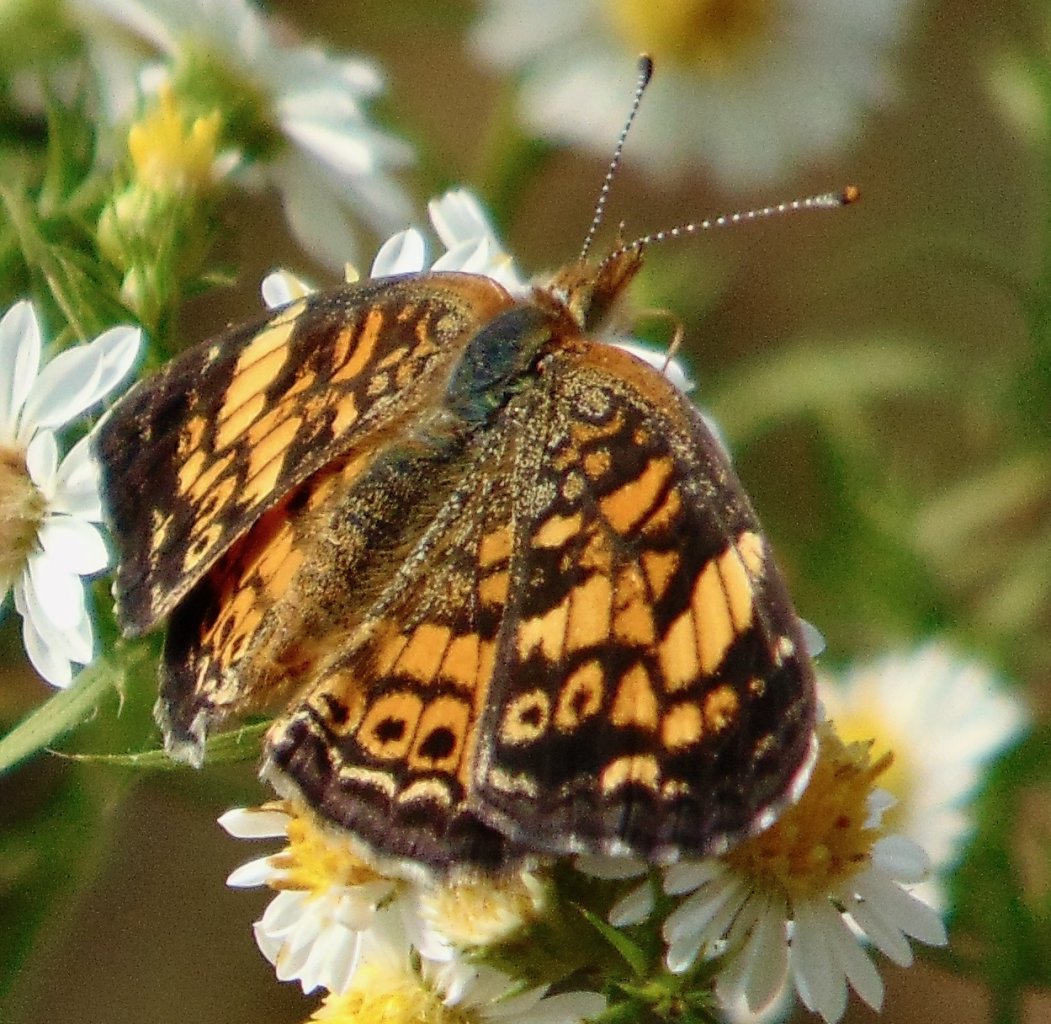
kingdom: Animalia
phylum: Arthropoda
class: Insecta
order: Lepidoptera
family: Nymphalidae
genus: Phyciodes
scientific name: Phyciodes tharos
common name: Pearl Crescent
